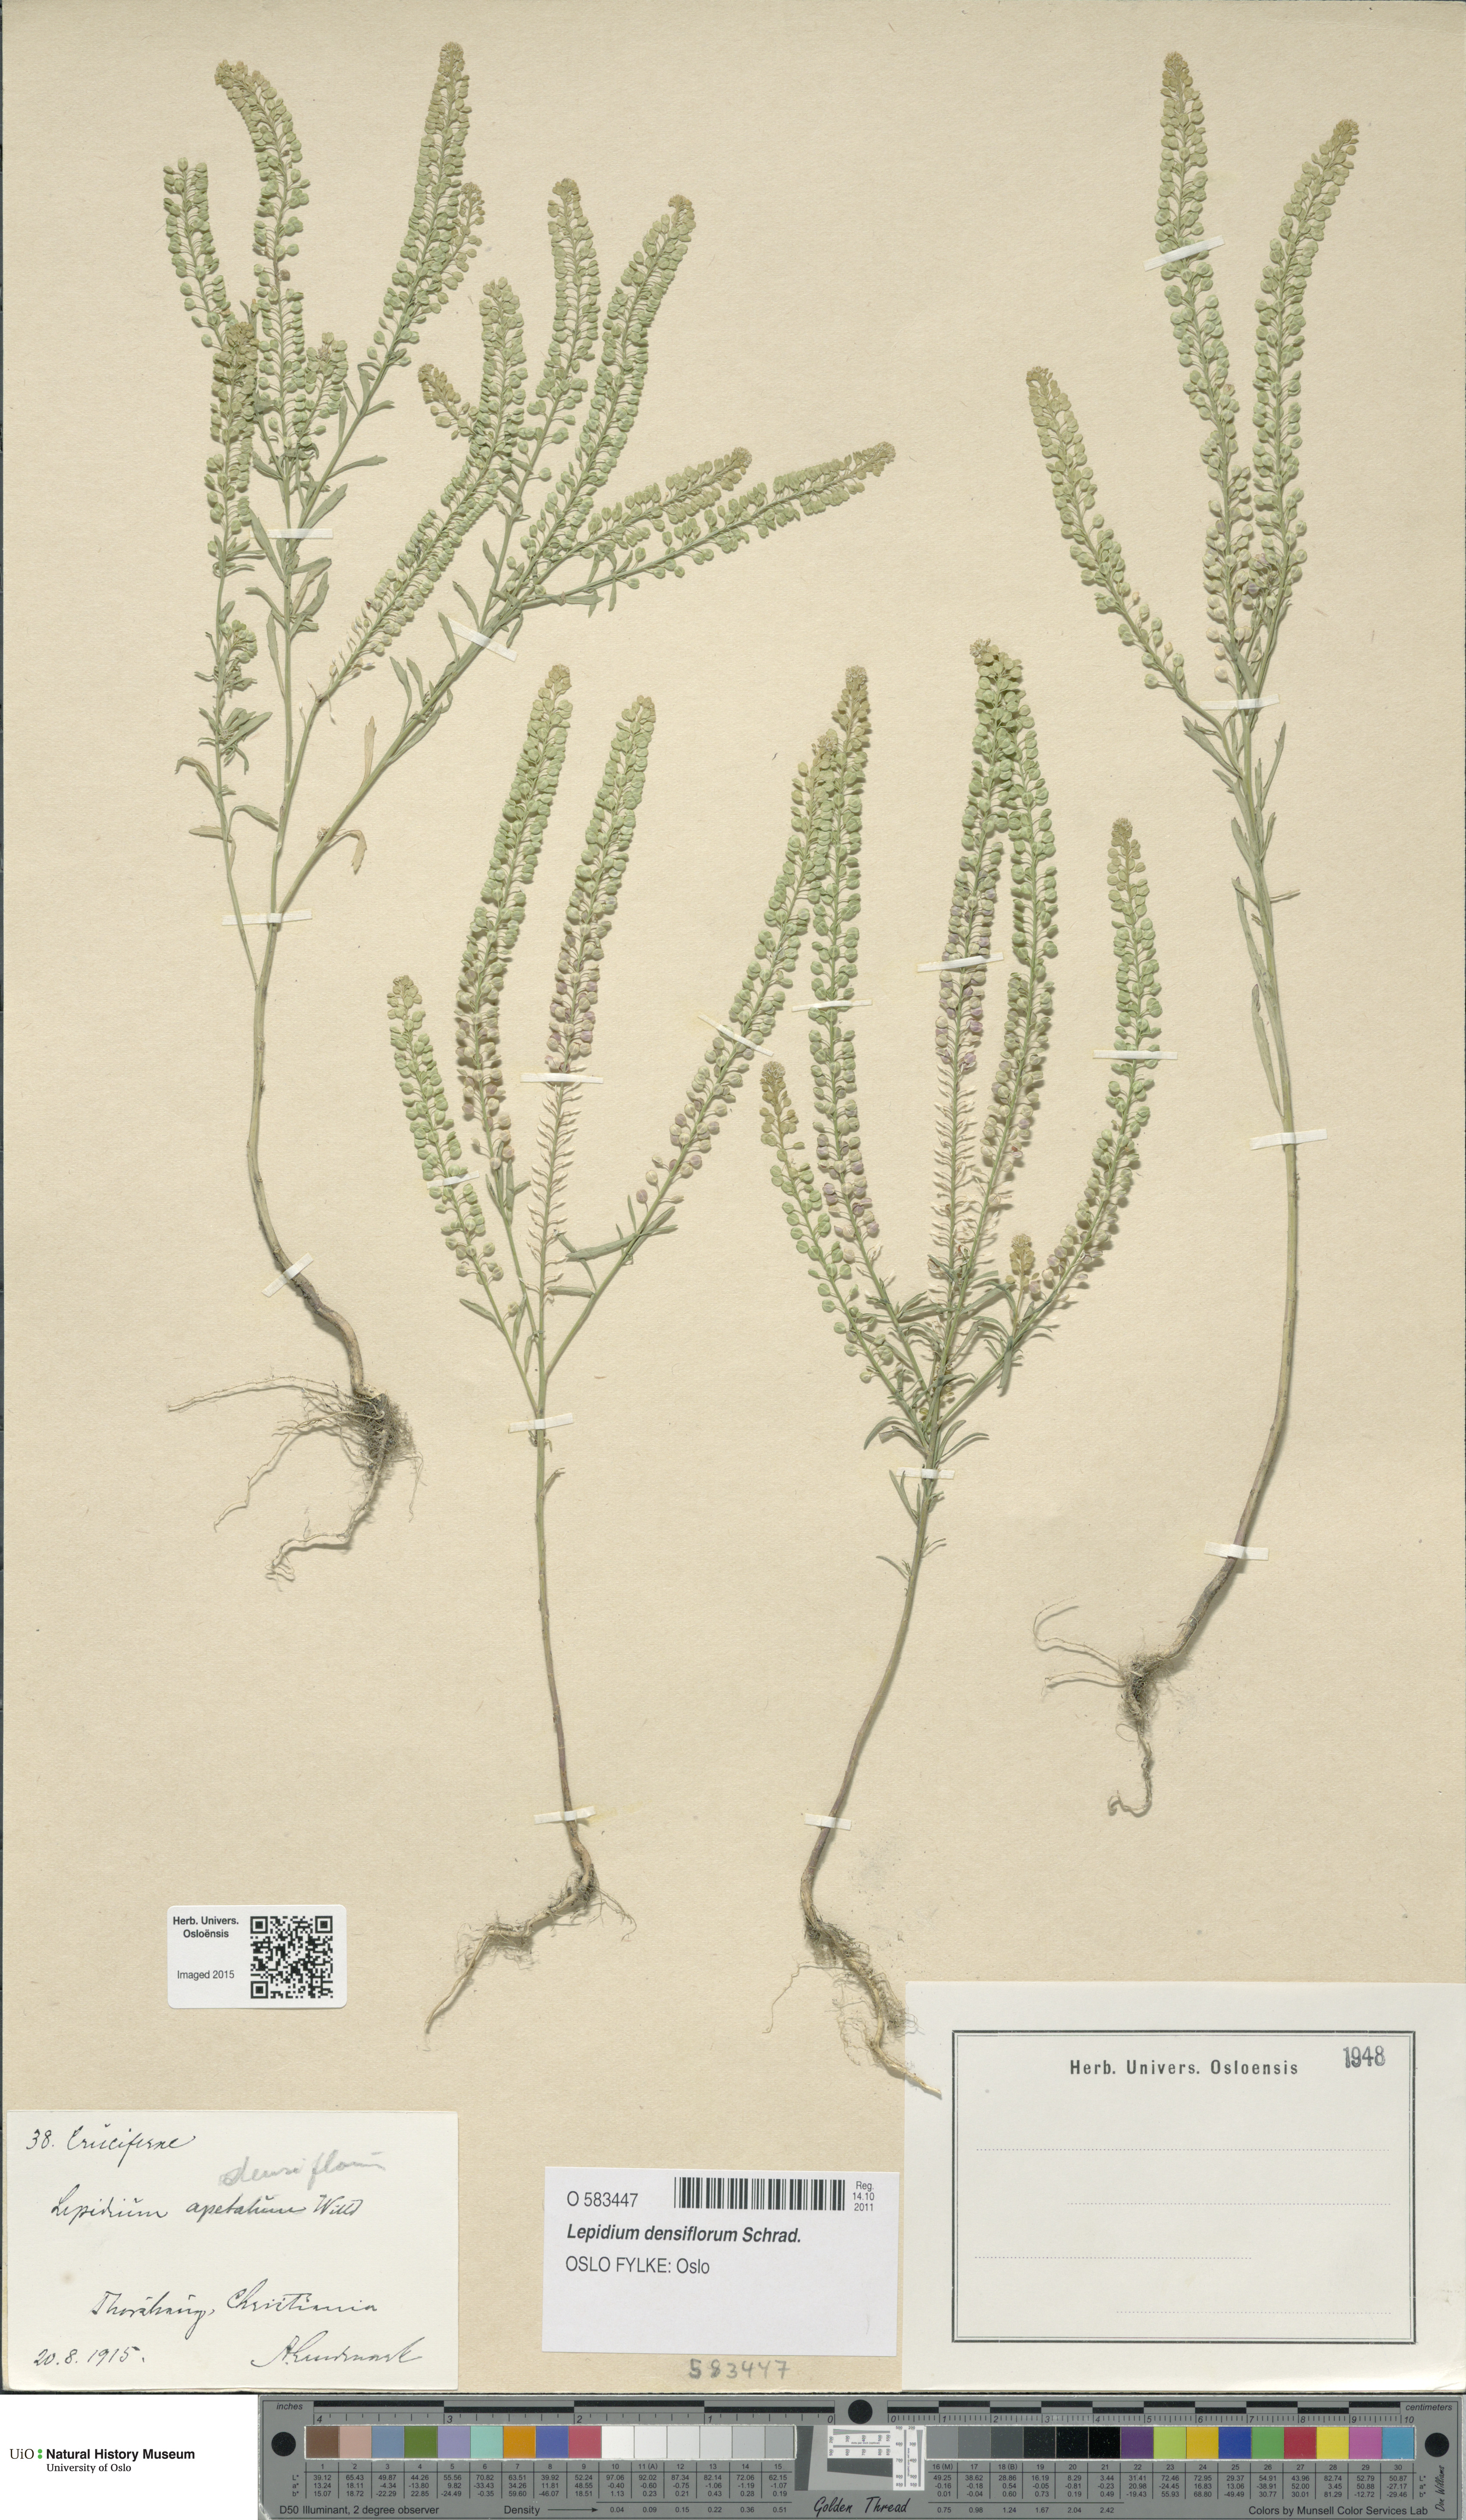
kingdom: Plantae
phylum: Tracheophyta
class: Magnoliopsida
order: Brassicales
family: Brassicaceae
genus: Lepidium
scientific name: Lepidium densiflorum
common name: Miner's pepperwort
